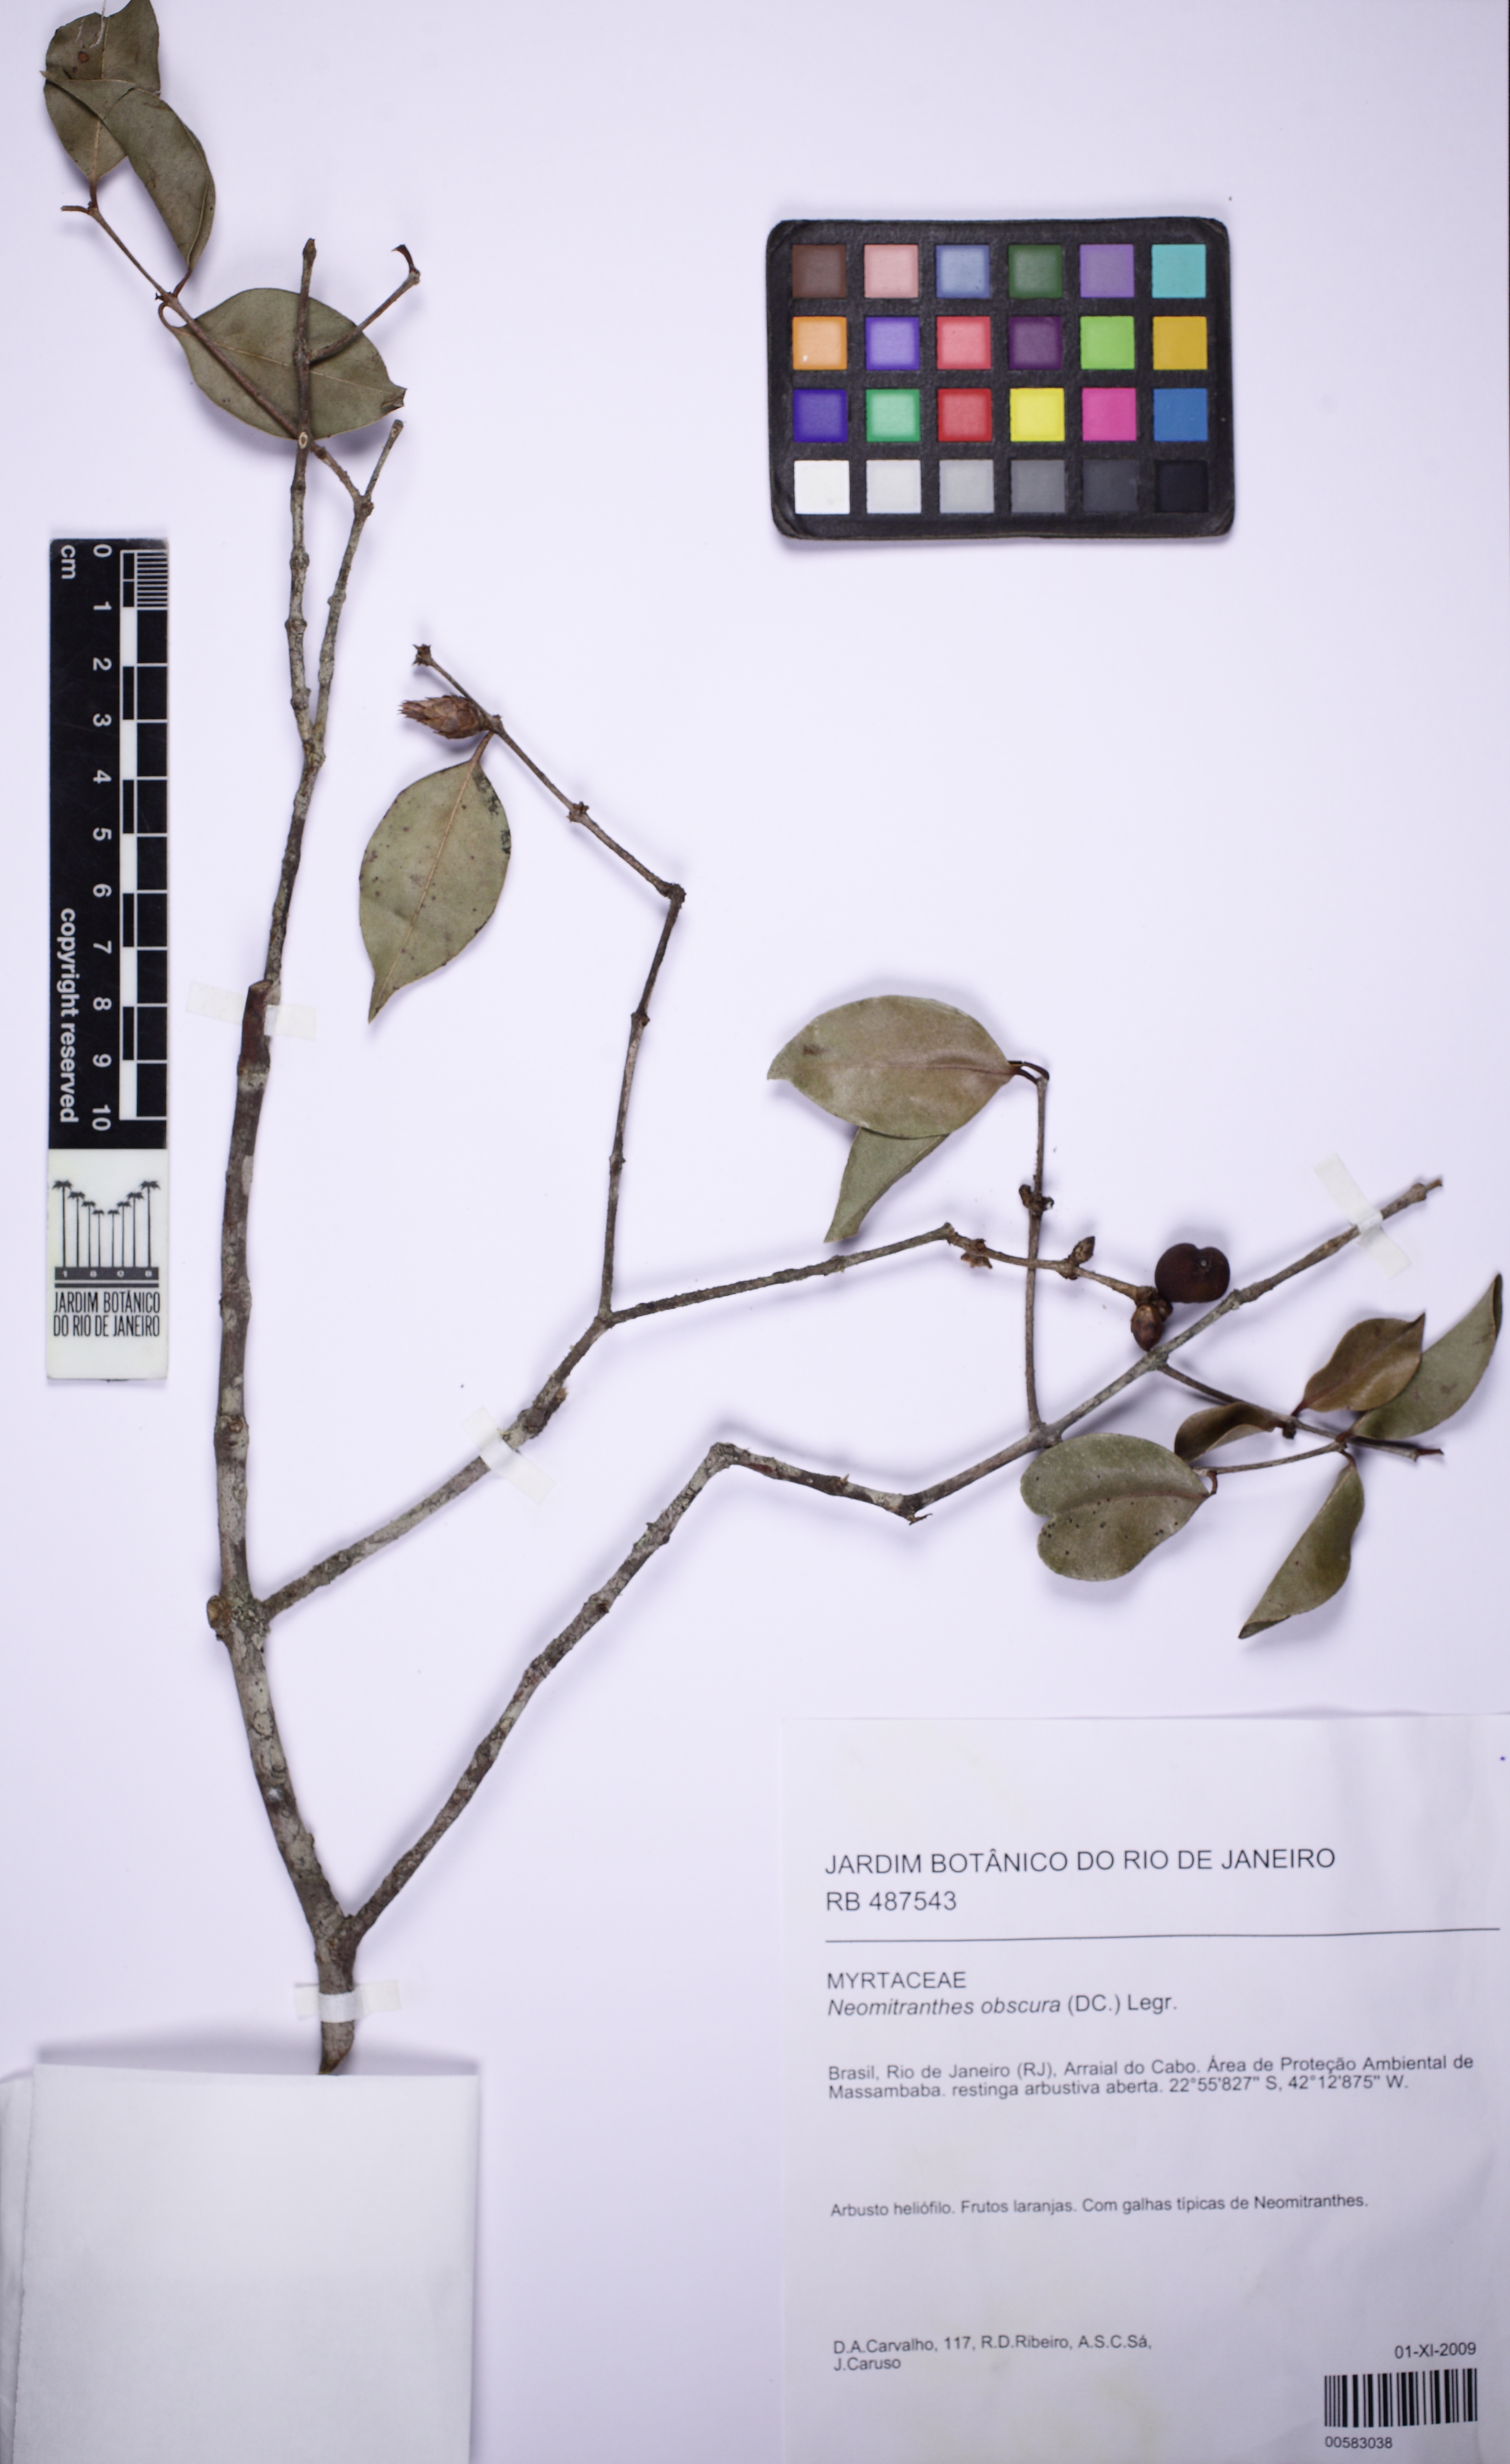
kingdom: Plantae
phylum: Tracheophyta
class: Magnoliopsida
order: Myrtales
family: Myrtaceae
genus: Neomitranthes
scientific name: Neomitranthes obscura
